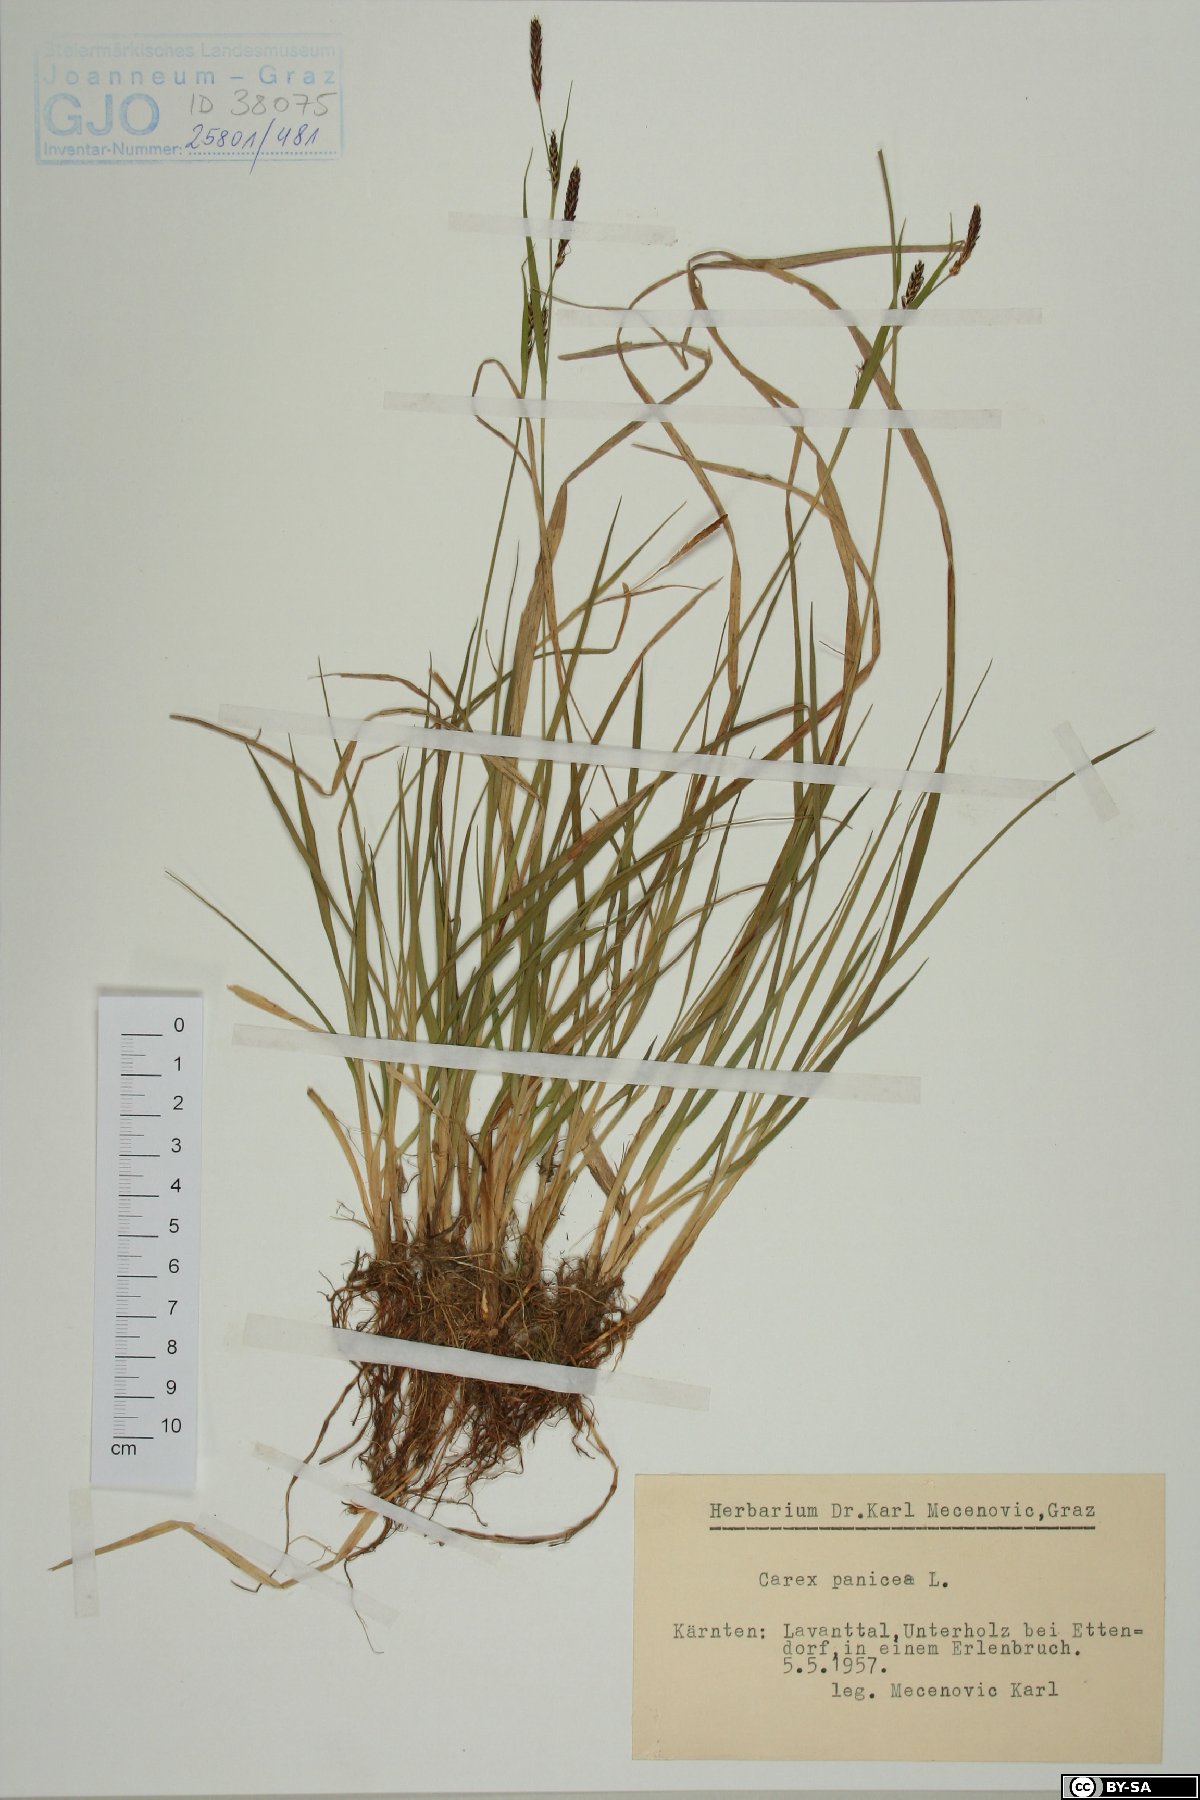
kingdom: Plantae
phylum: Tracheophyta
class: Liliopsida
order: Poales
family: Cyperaceae
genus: Carex
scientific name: Carex panicea
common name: Carnation sedge
